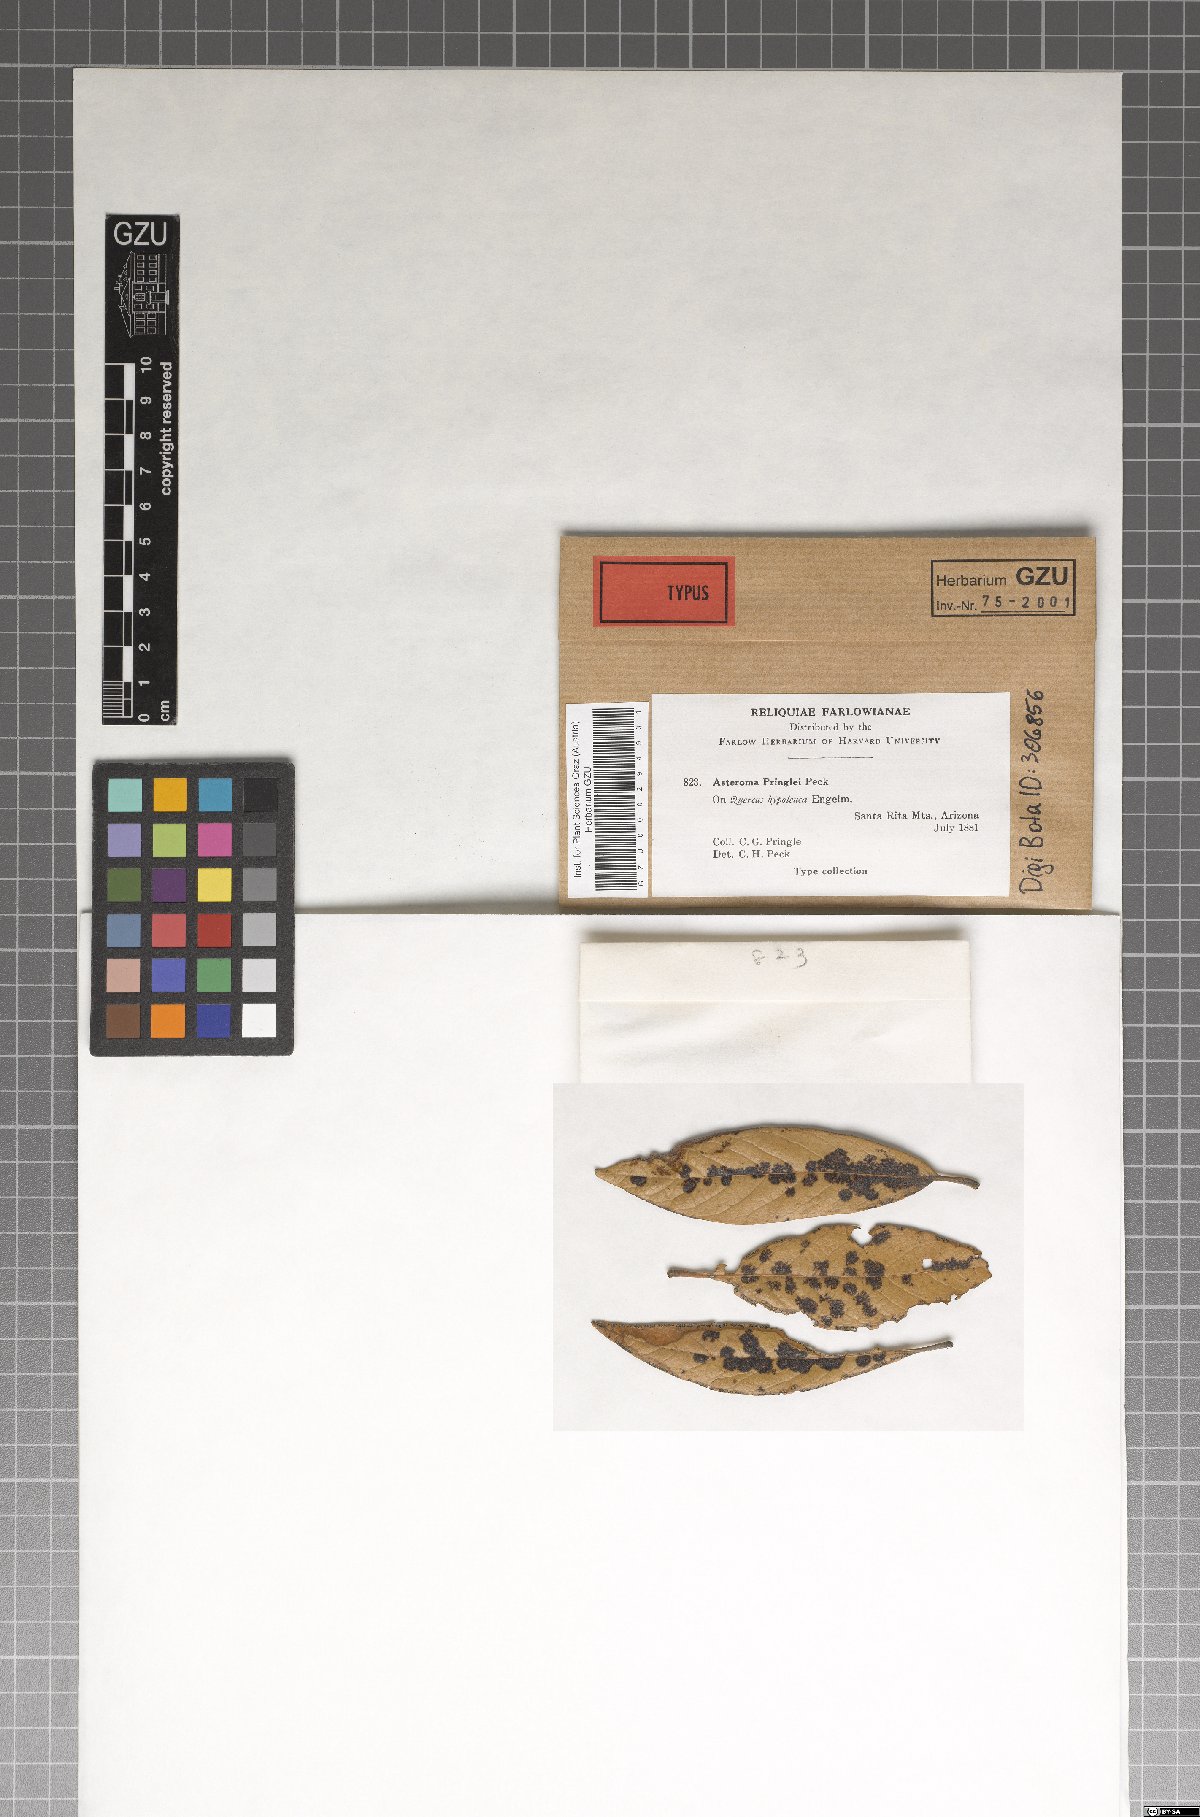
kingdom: Fungi
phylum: Ascomycota
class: Sordariomycetes
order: Diaporthales
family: Gnomoniaceae
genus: Asteroma
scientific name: Asteroma
